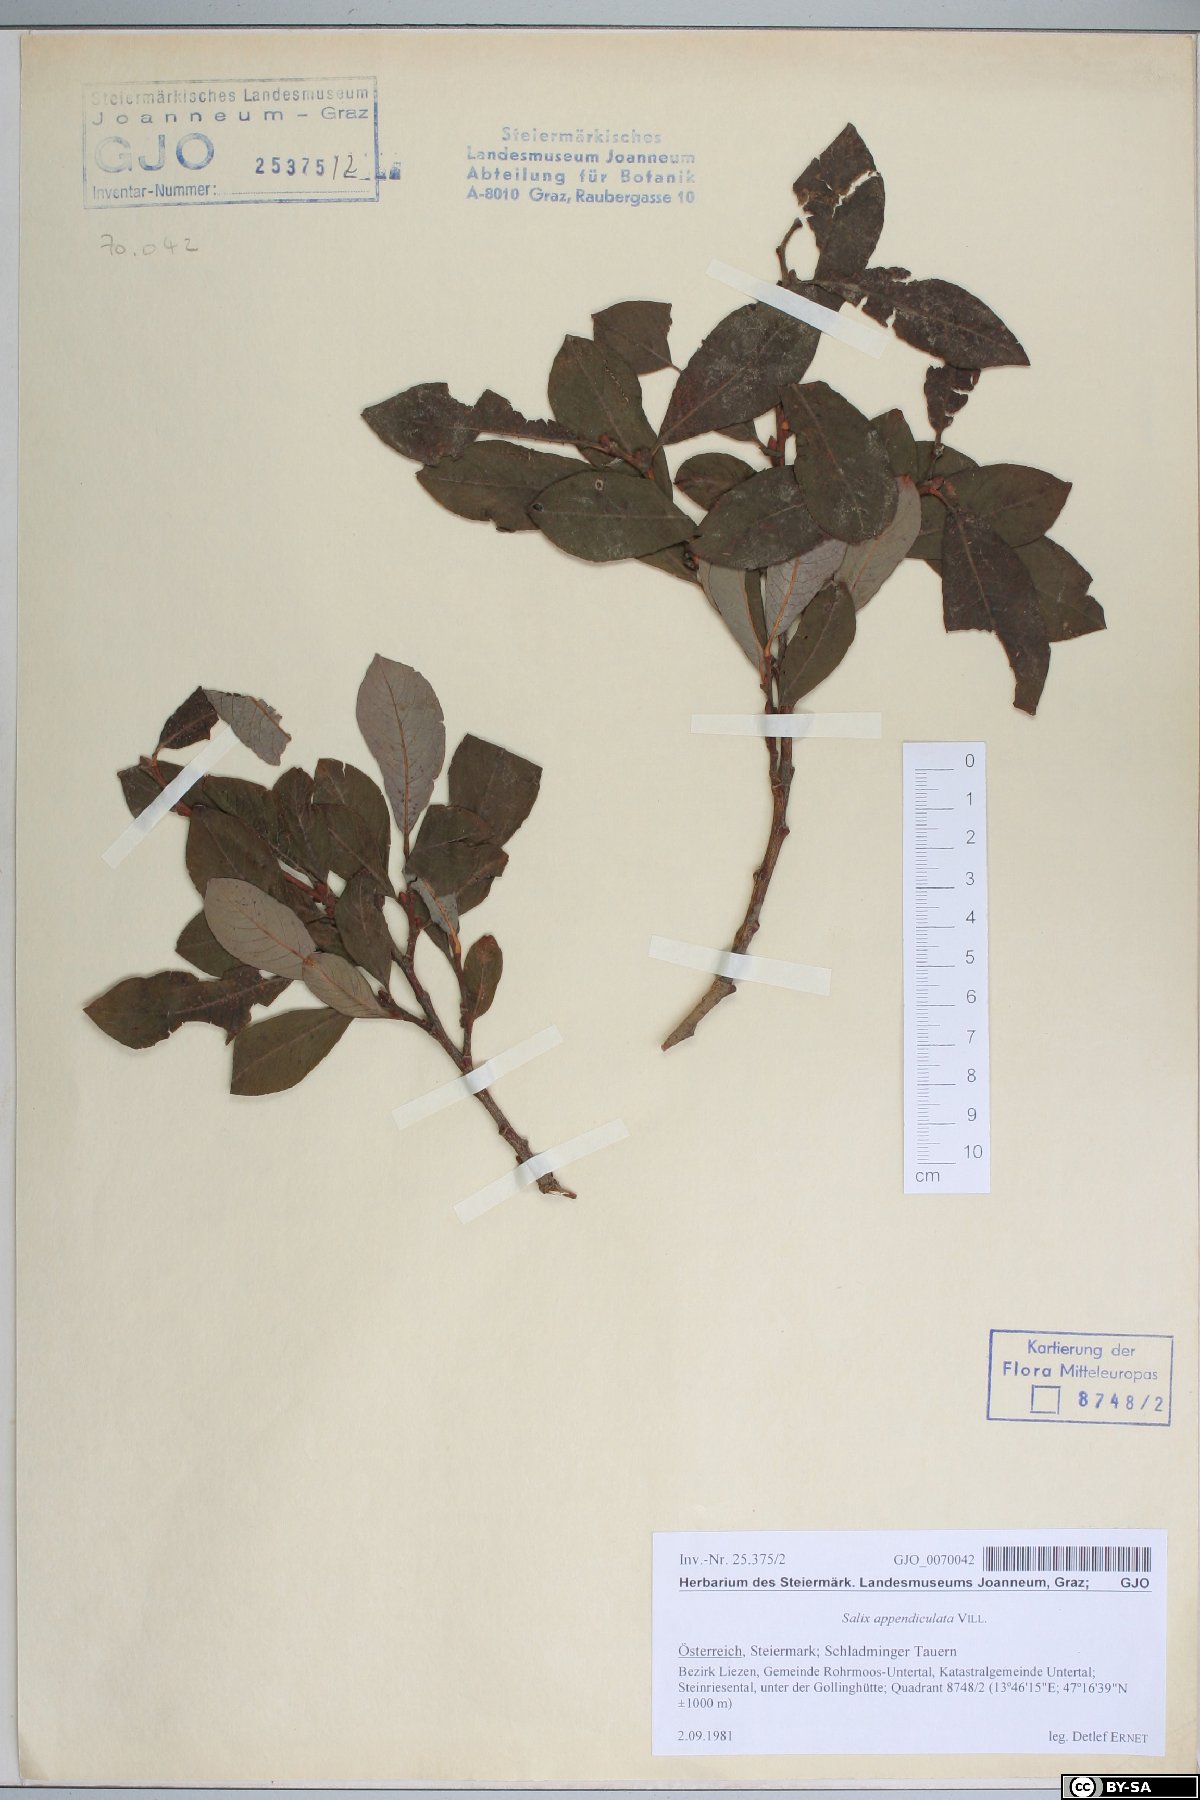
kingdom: Plantae
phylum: Tracheophyta
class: Magnoliopsida
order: Malpighiales
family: Salicaceae
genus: Salix
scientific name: Salix appendiculata
